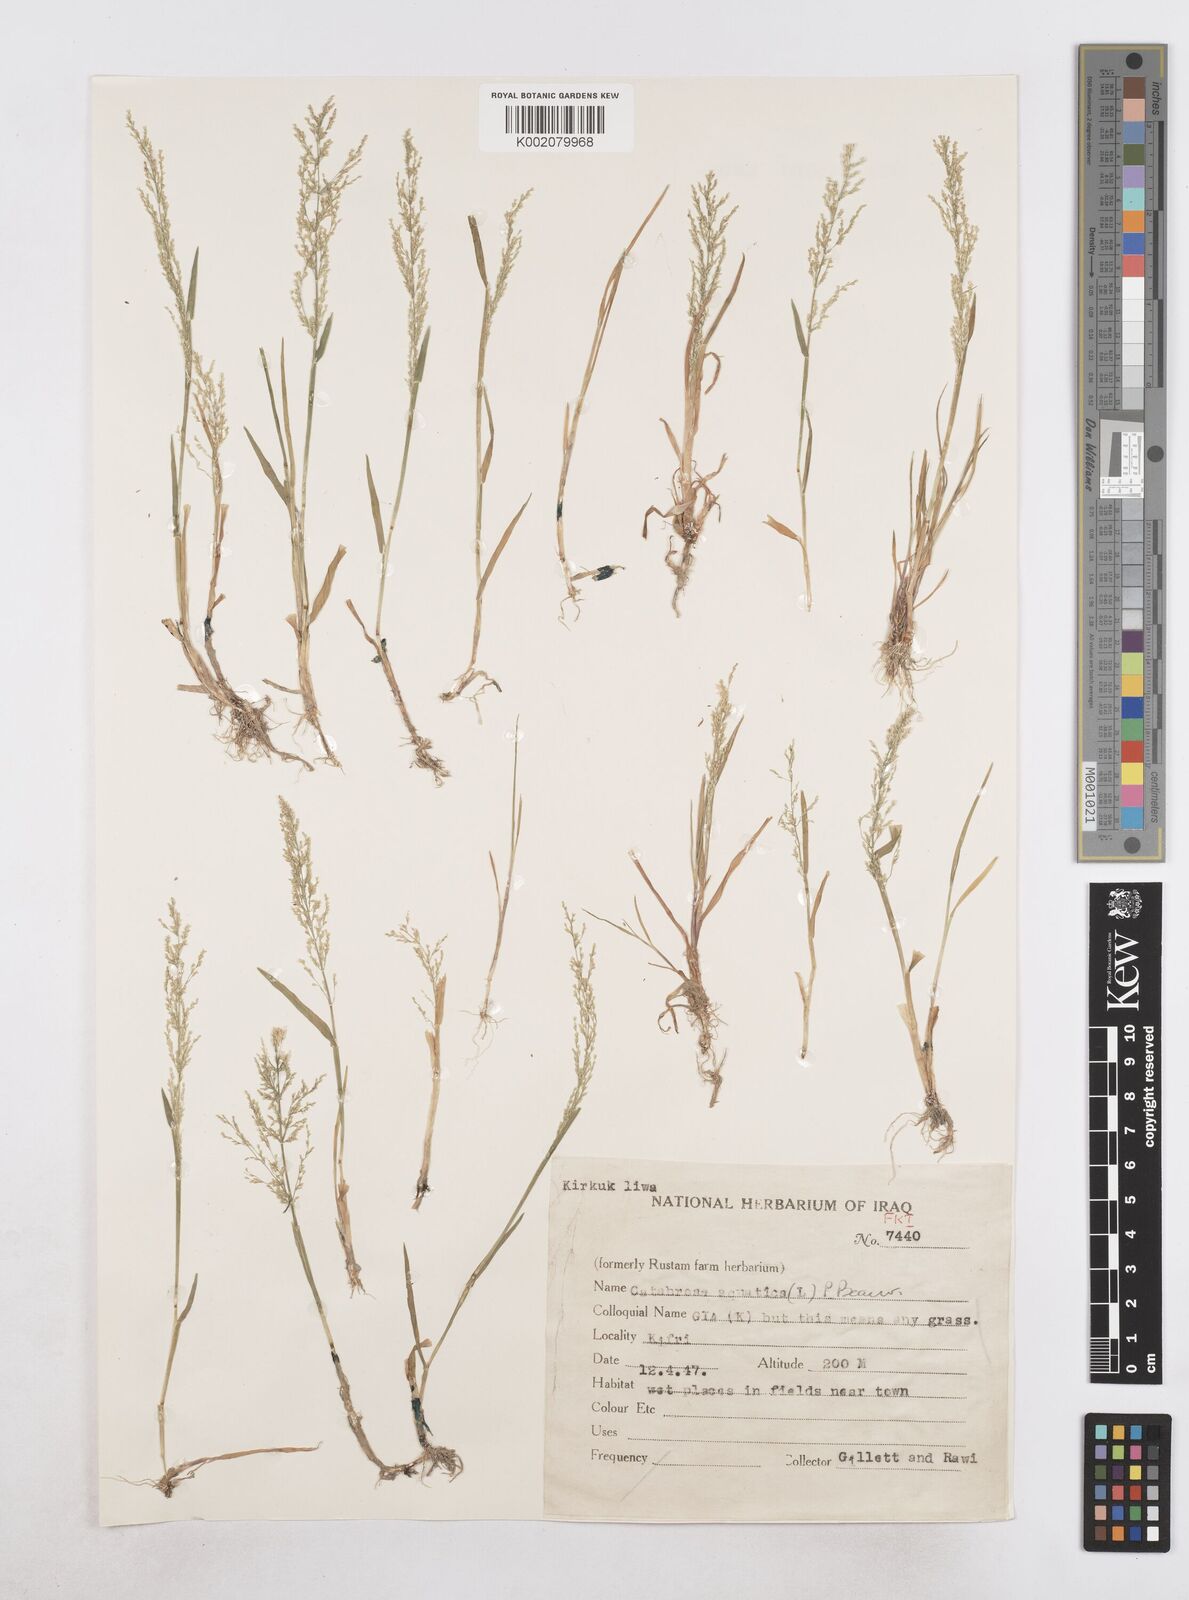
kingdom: Plantae
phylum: Tracheophyta
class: Liliopsida
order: Poales
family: Poaceae
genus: Catabrosa
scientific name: Catabrosa aquatica
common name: Whorl-grass
